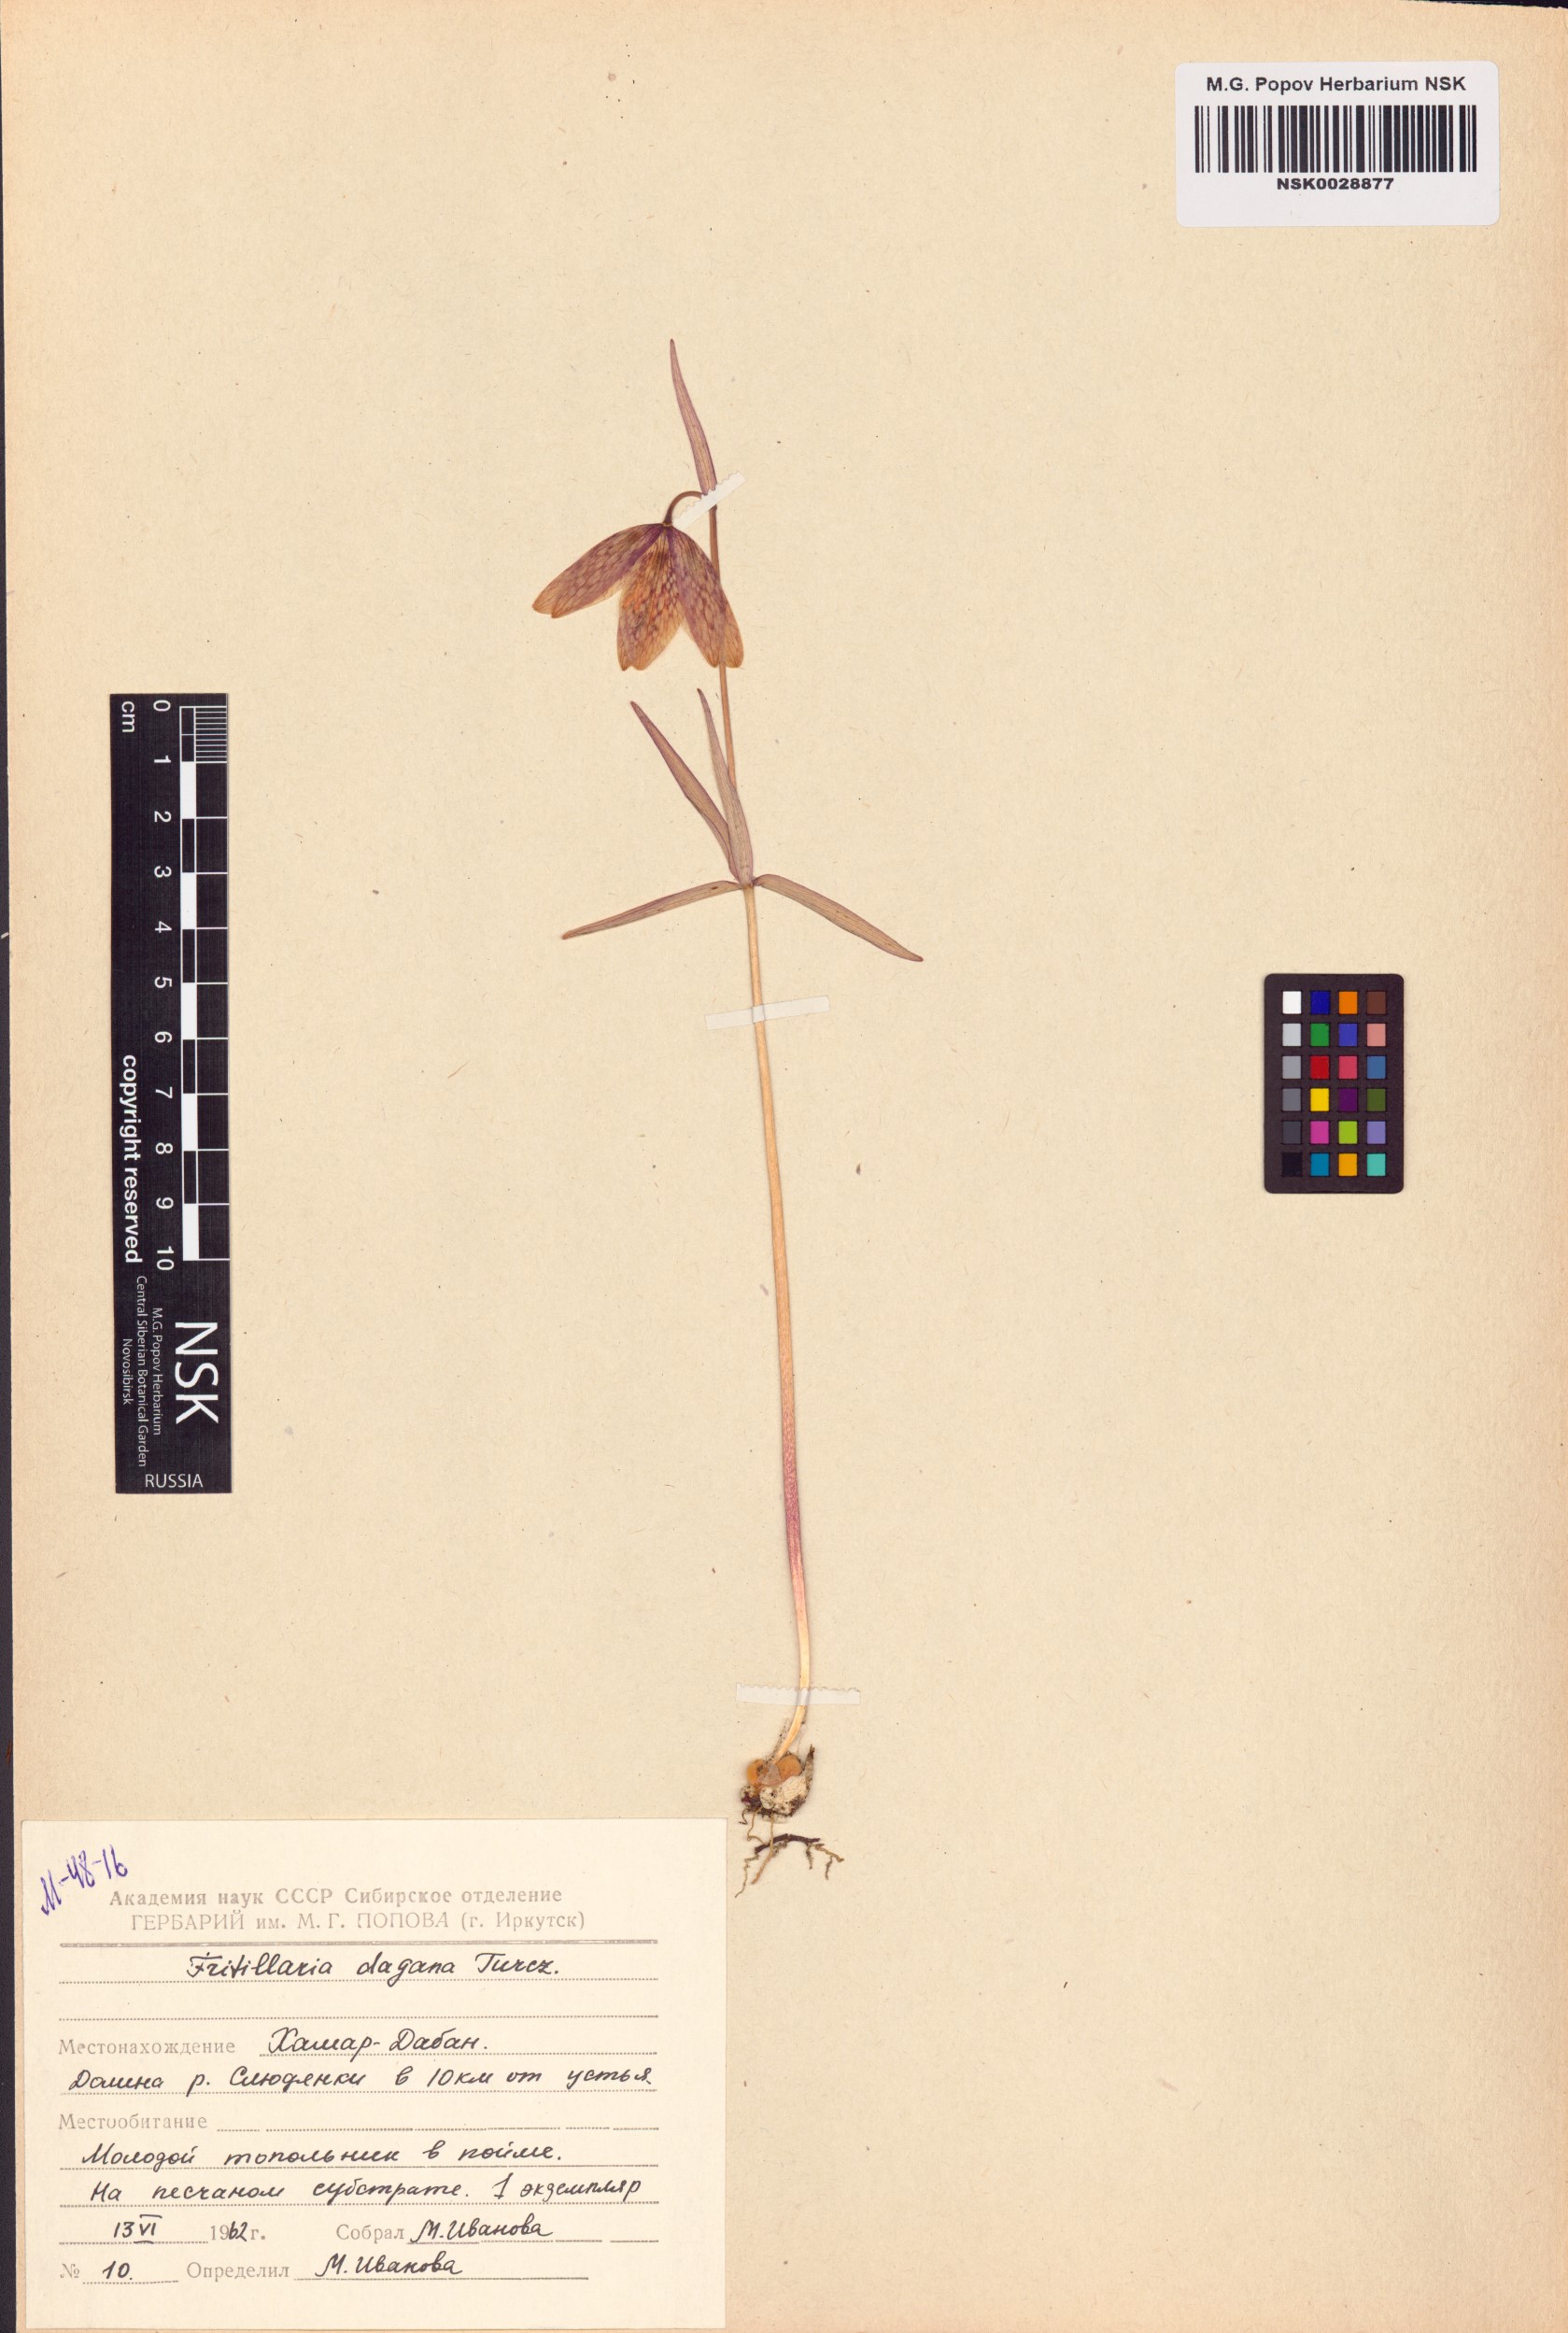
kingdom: Plantae
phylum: Tracheophyta
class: Liliopsida
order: Liliales
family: Liliaceae
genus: Fritillaria
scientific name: Fritillaria dagana
